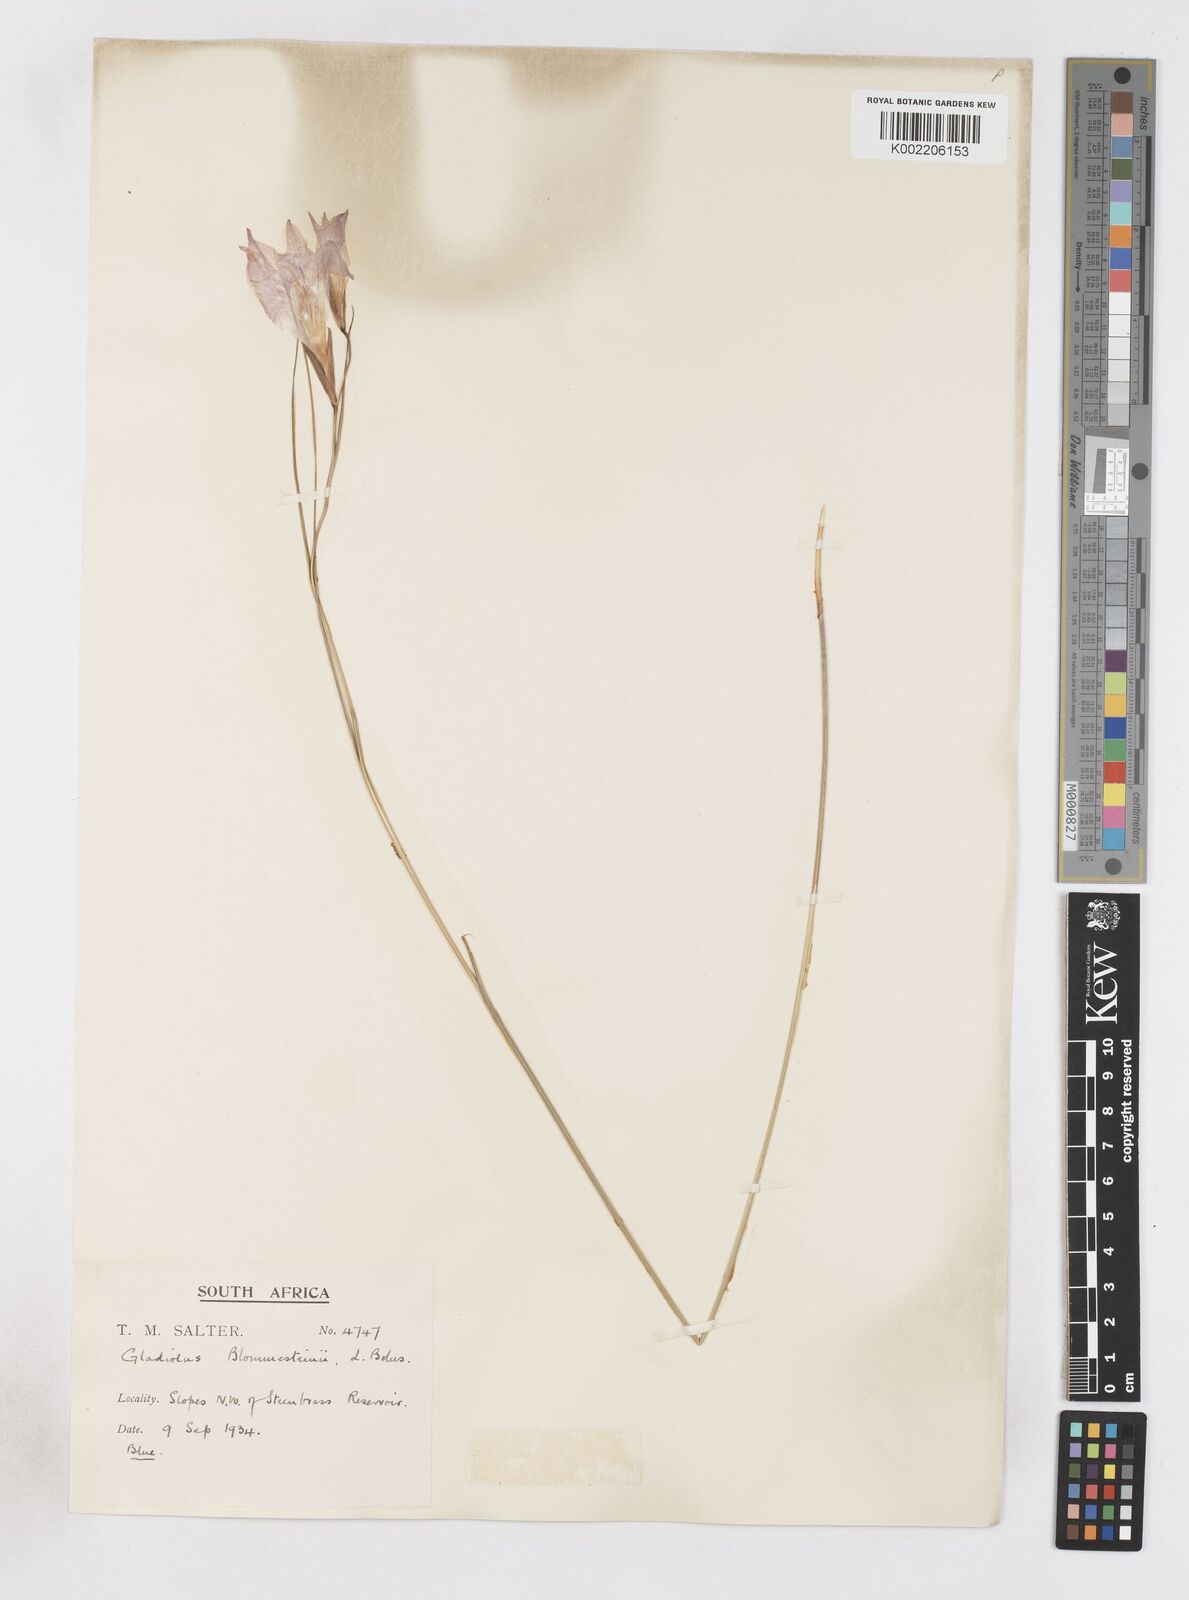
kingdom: Plantae
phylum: Tracheophyta
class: Liliopsida
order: Asparagales
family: Iridaceae
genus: Gladiolus
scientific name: Gladiolus blommesteinii
